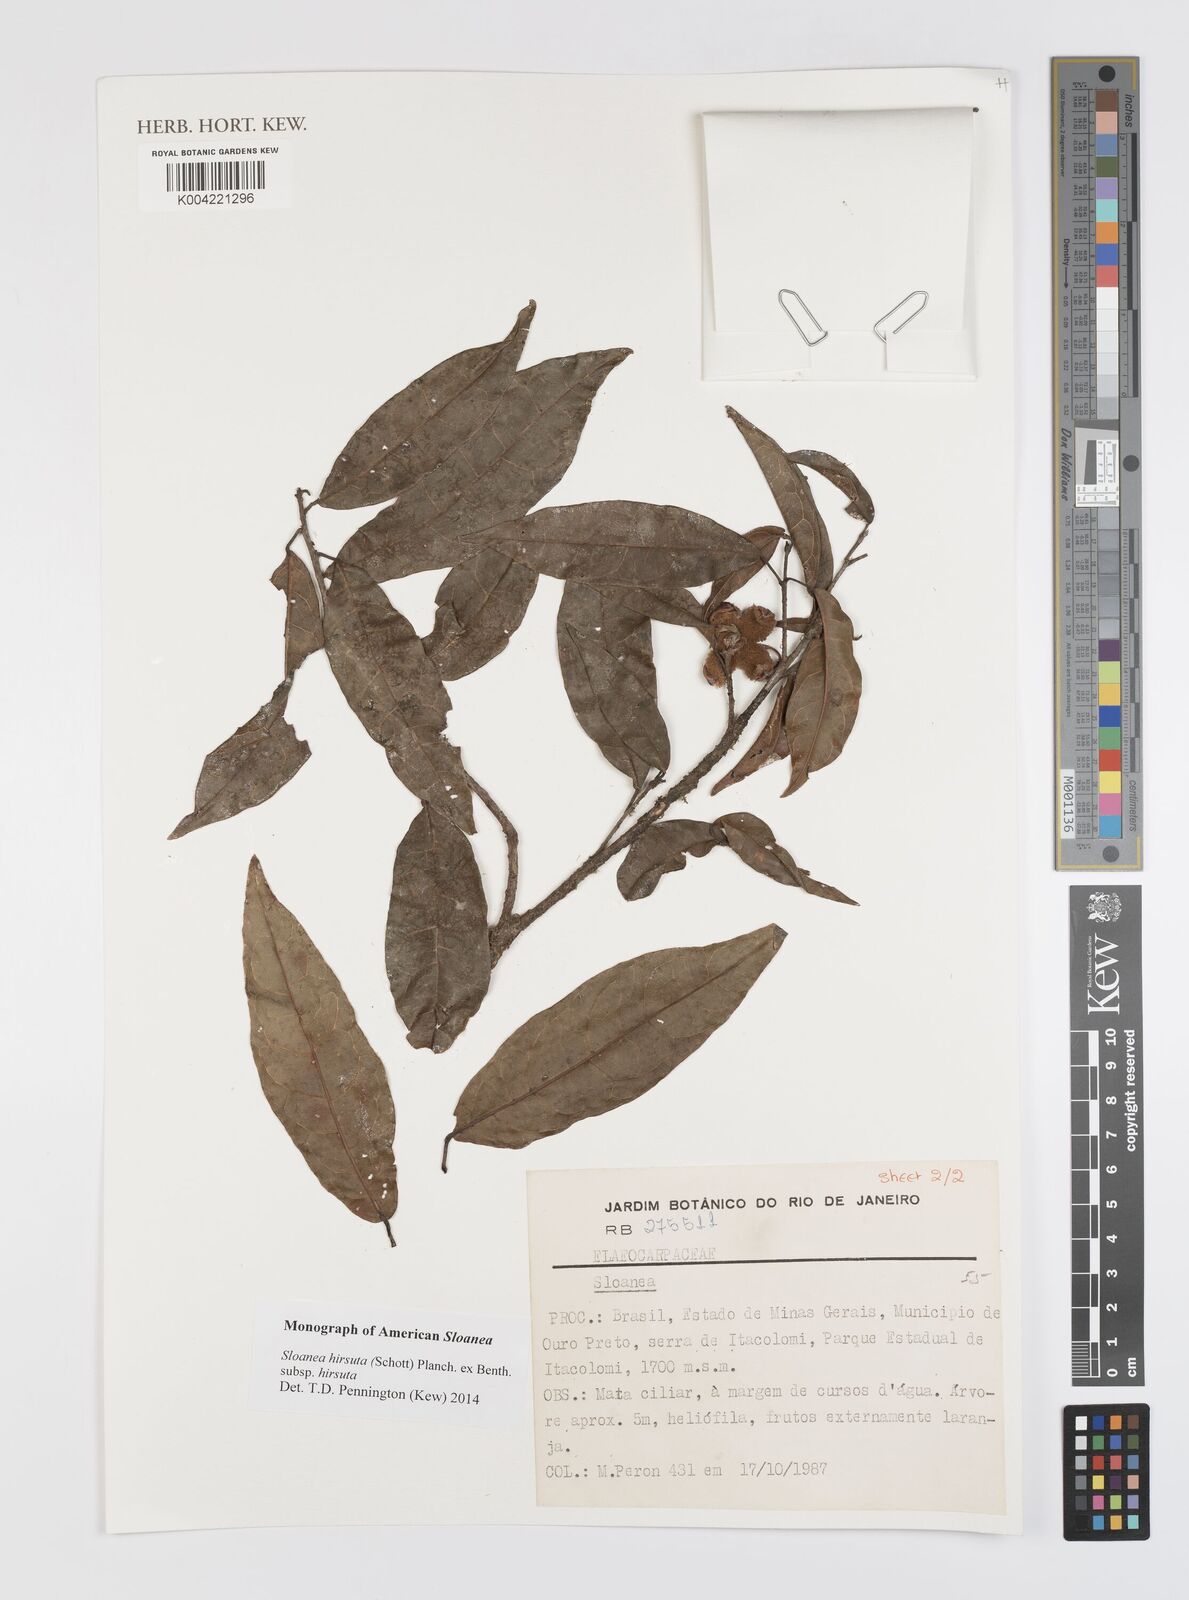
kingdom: Plantae
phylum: Tracheophyta
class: Magnoliopsida
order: Oxalidales
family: Elaeocarpaceae
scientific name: Elaeocarpaceae
